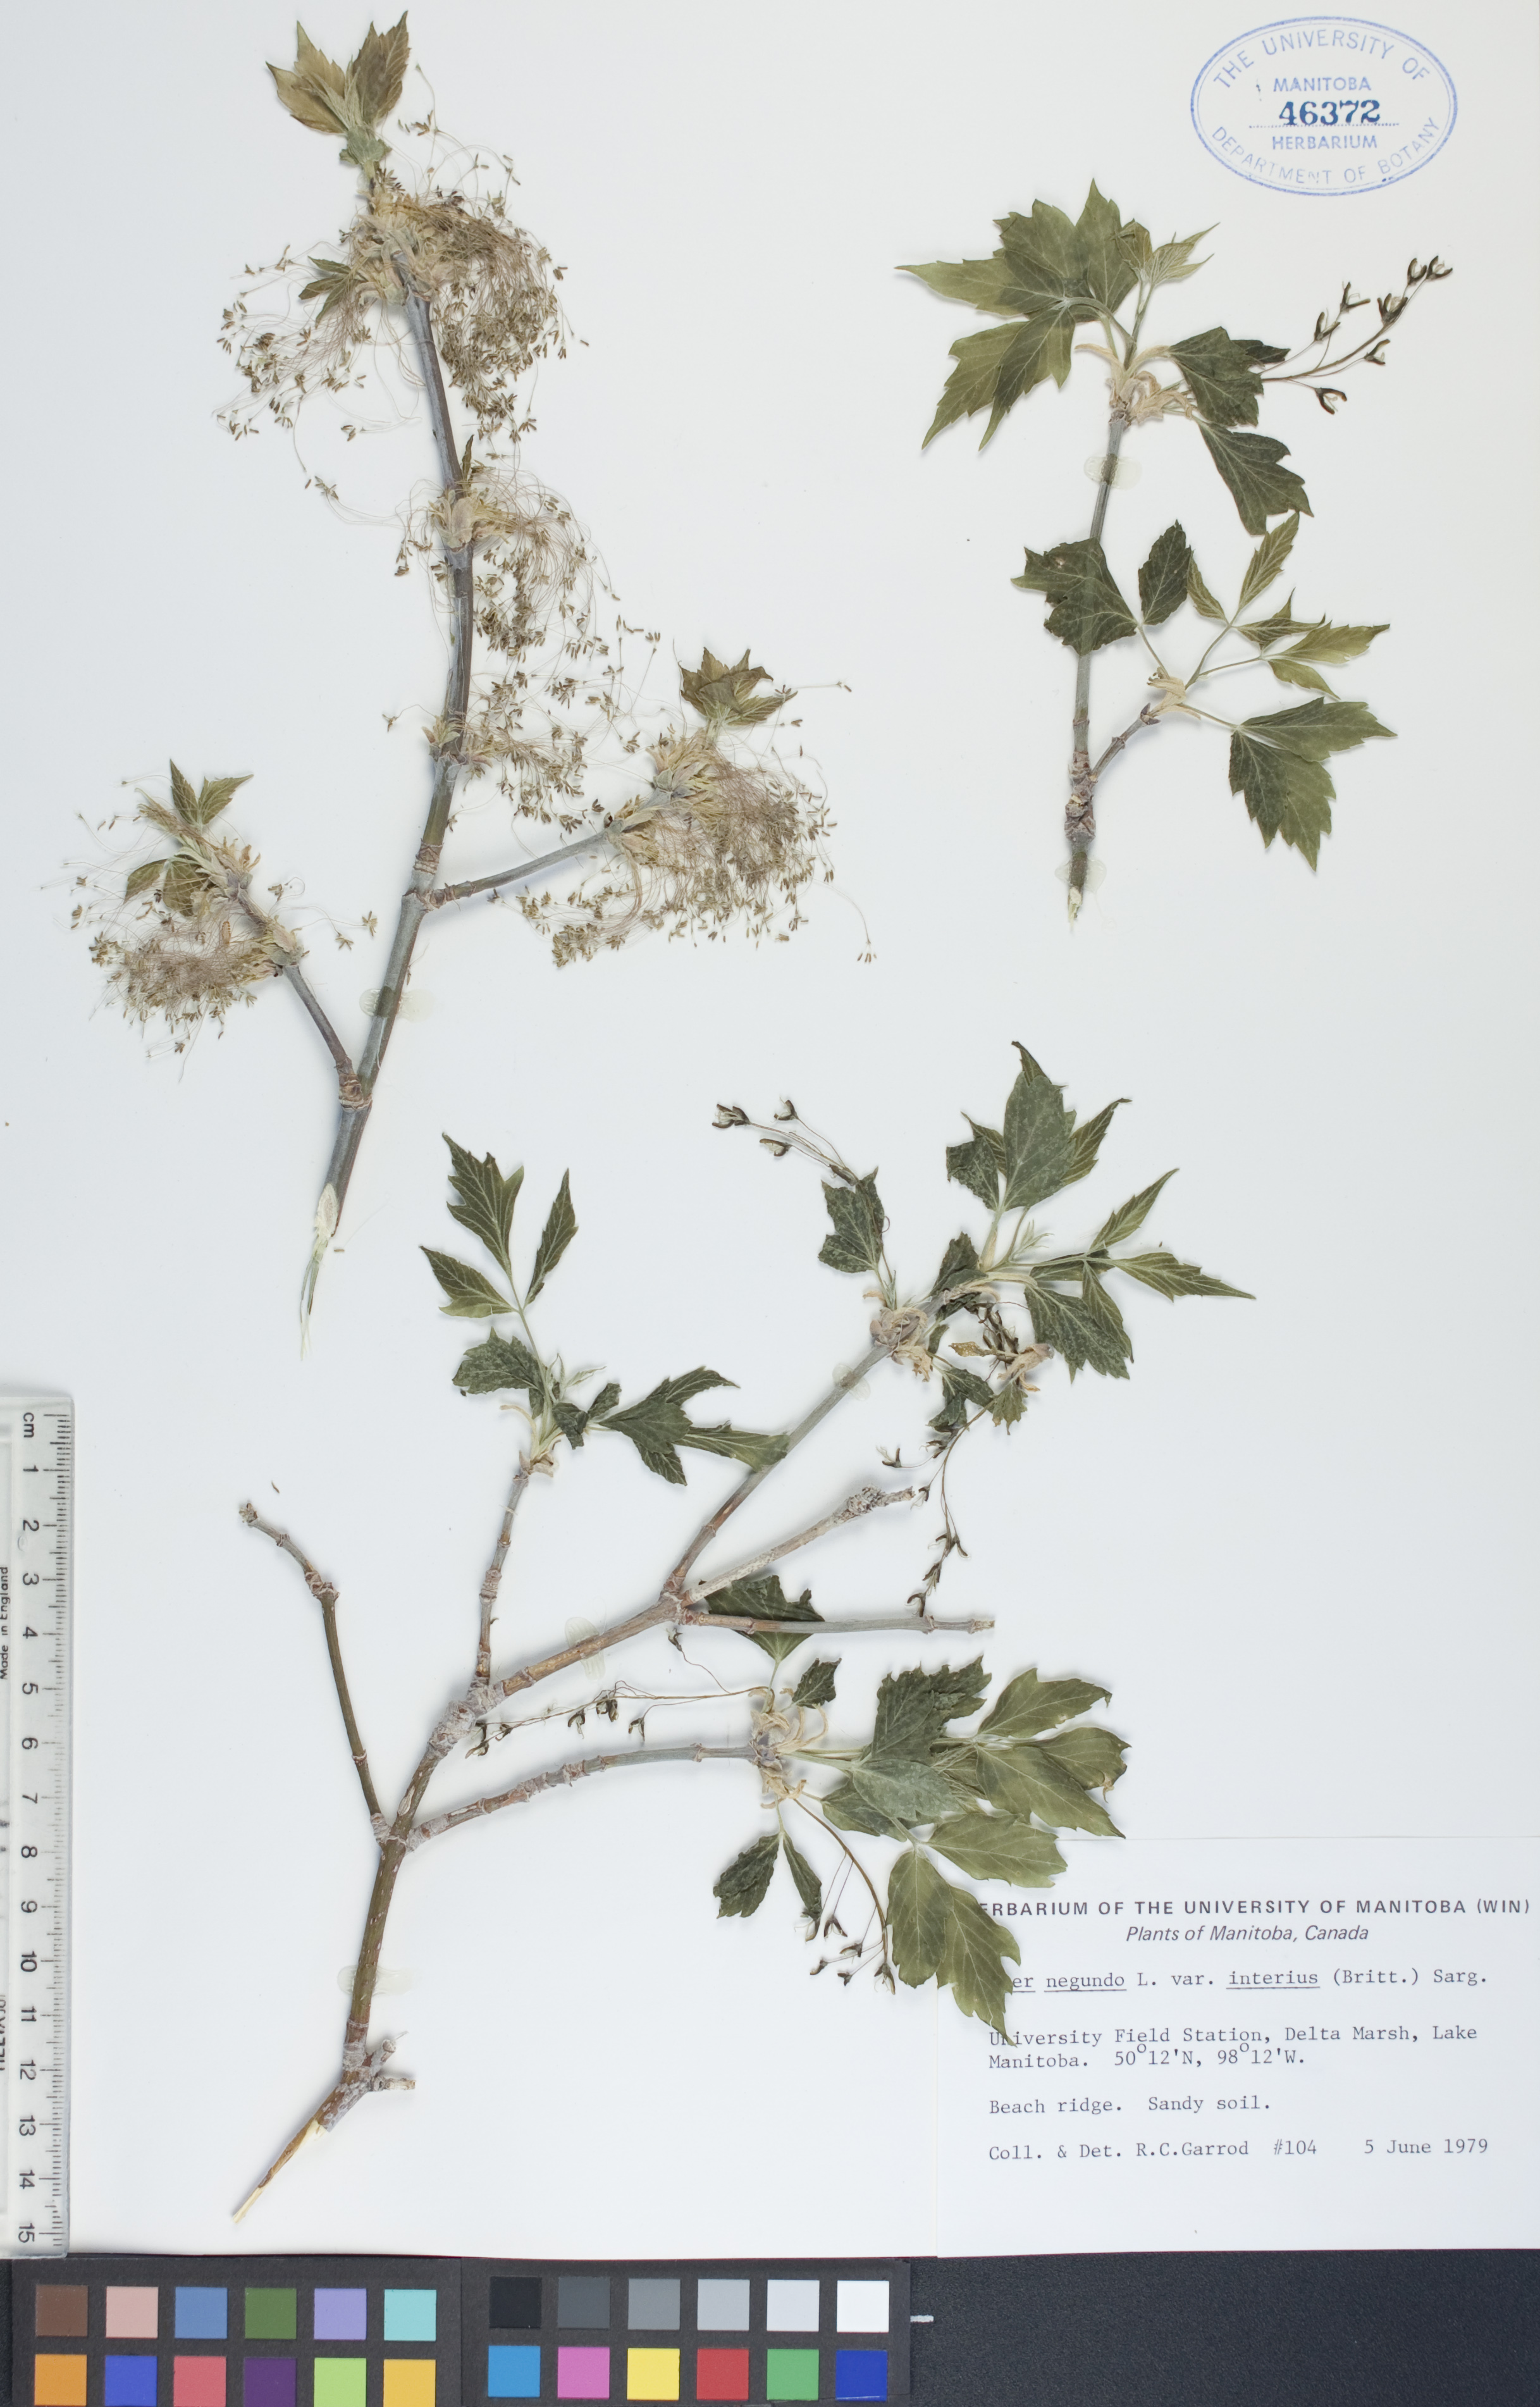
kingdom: Plantae
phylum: Tracheophyta
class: Magnoliopsida
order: Sapindales
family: Sapindaceae
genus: Acer
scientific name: Acer negundo
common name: Ashleaf maple
